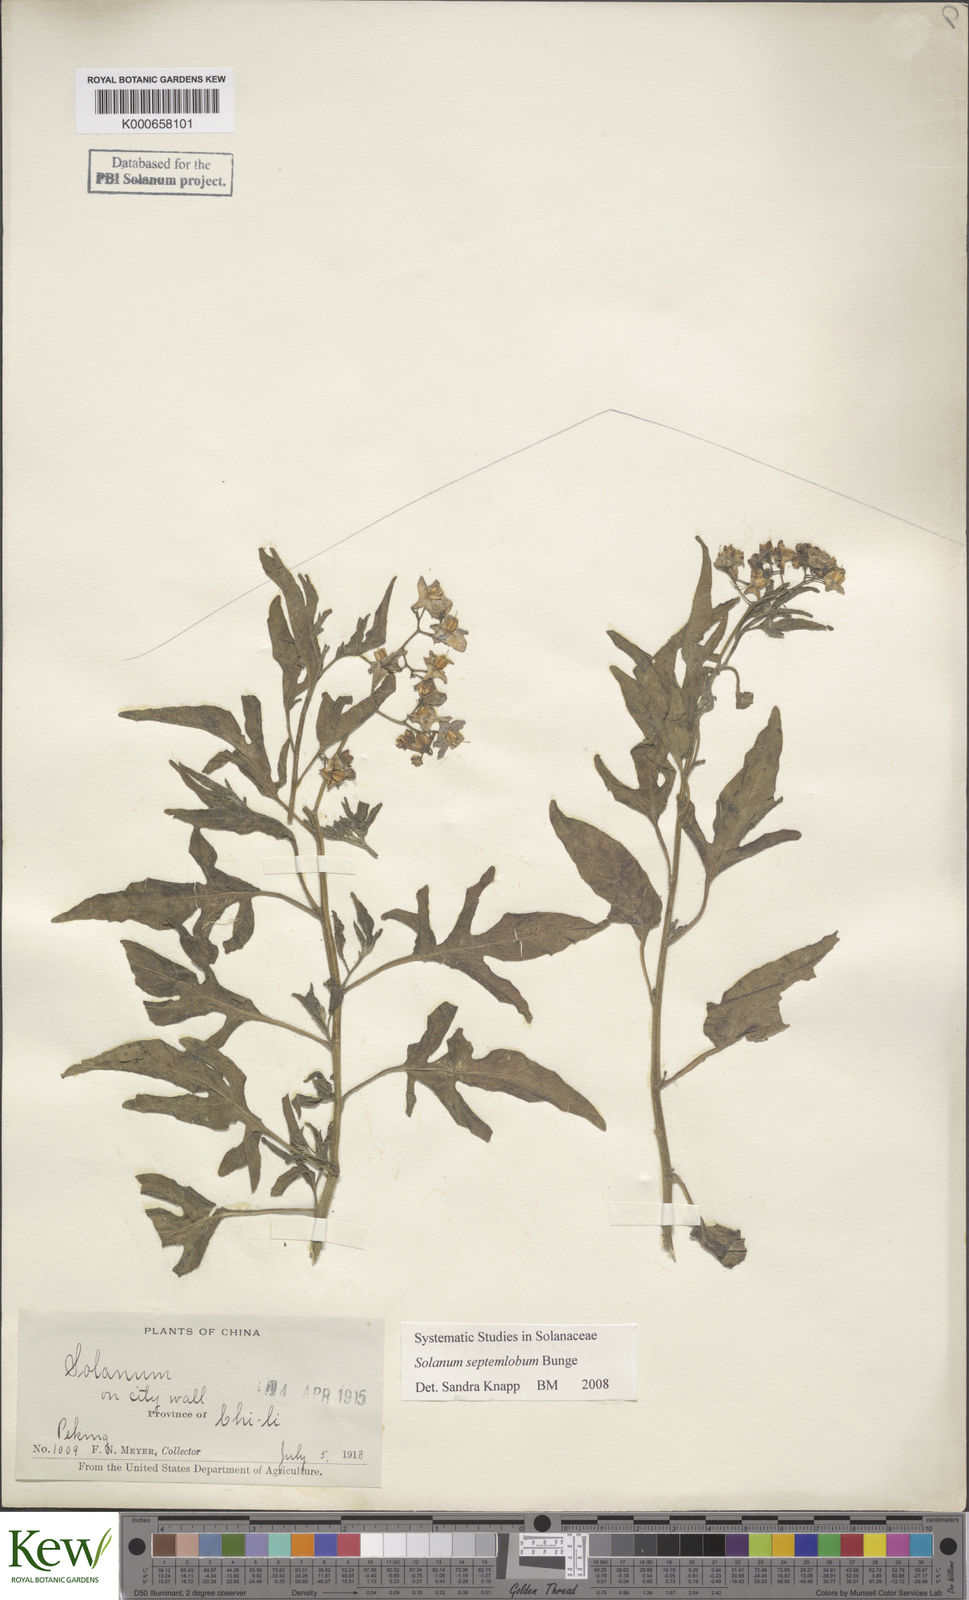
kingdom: Plantae
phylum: Tracheophyta
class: Magnoliopsida
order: Solanales
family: Solanaceae
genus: Solanum
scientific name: Solanum septemlobum
